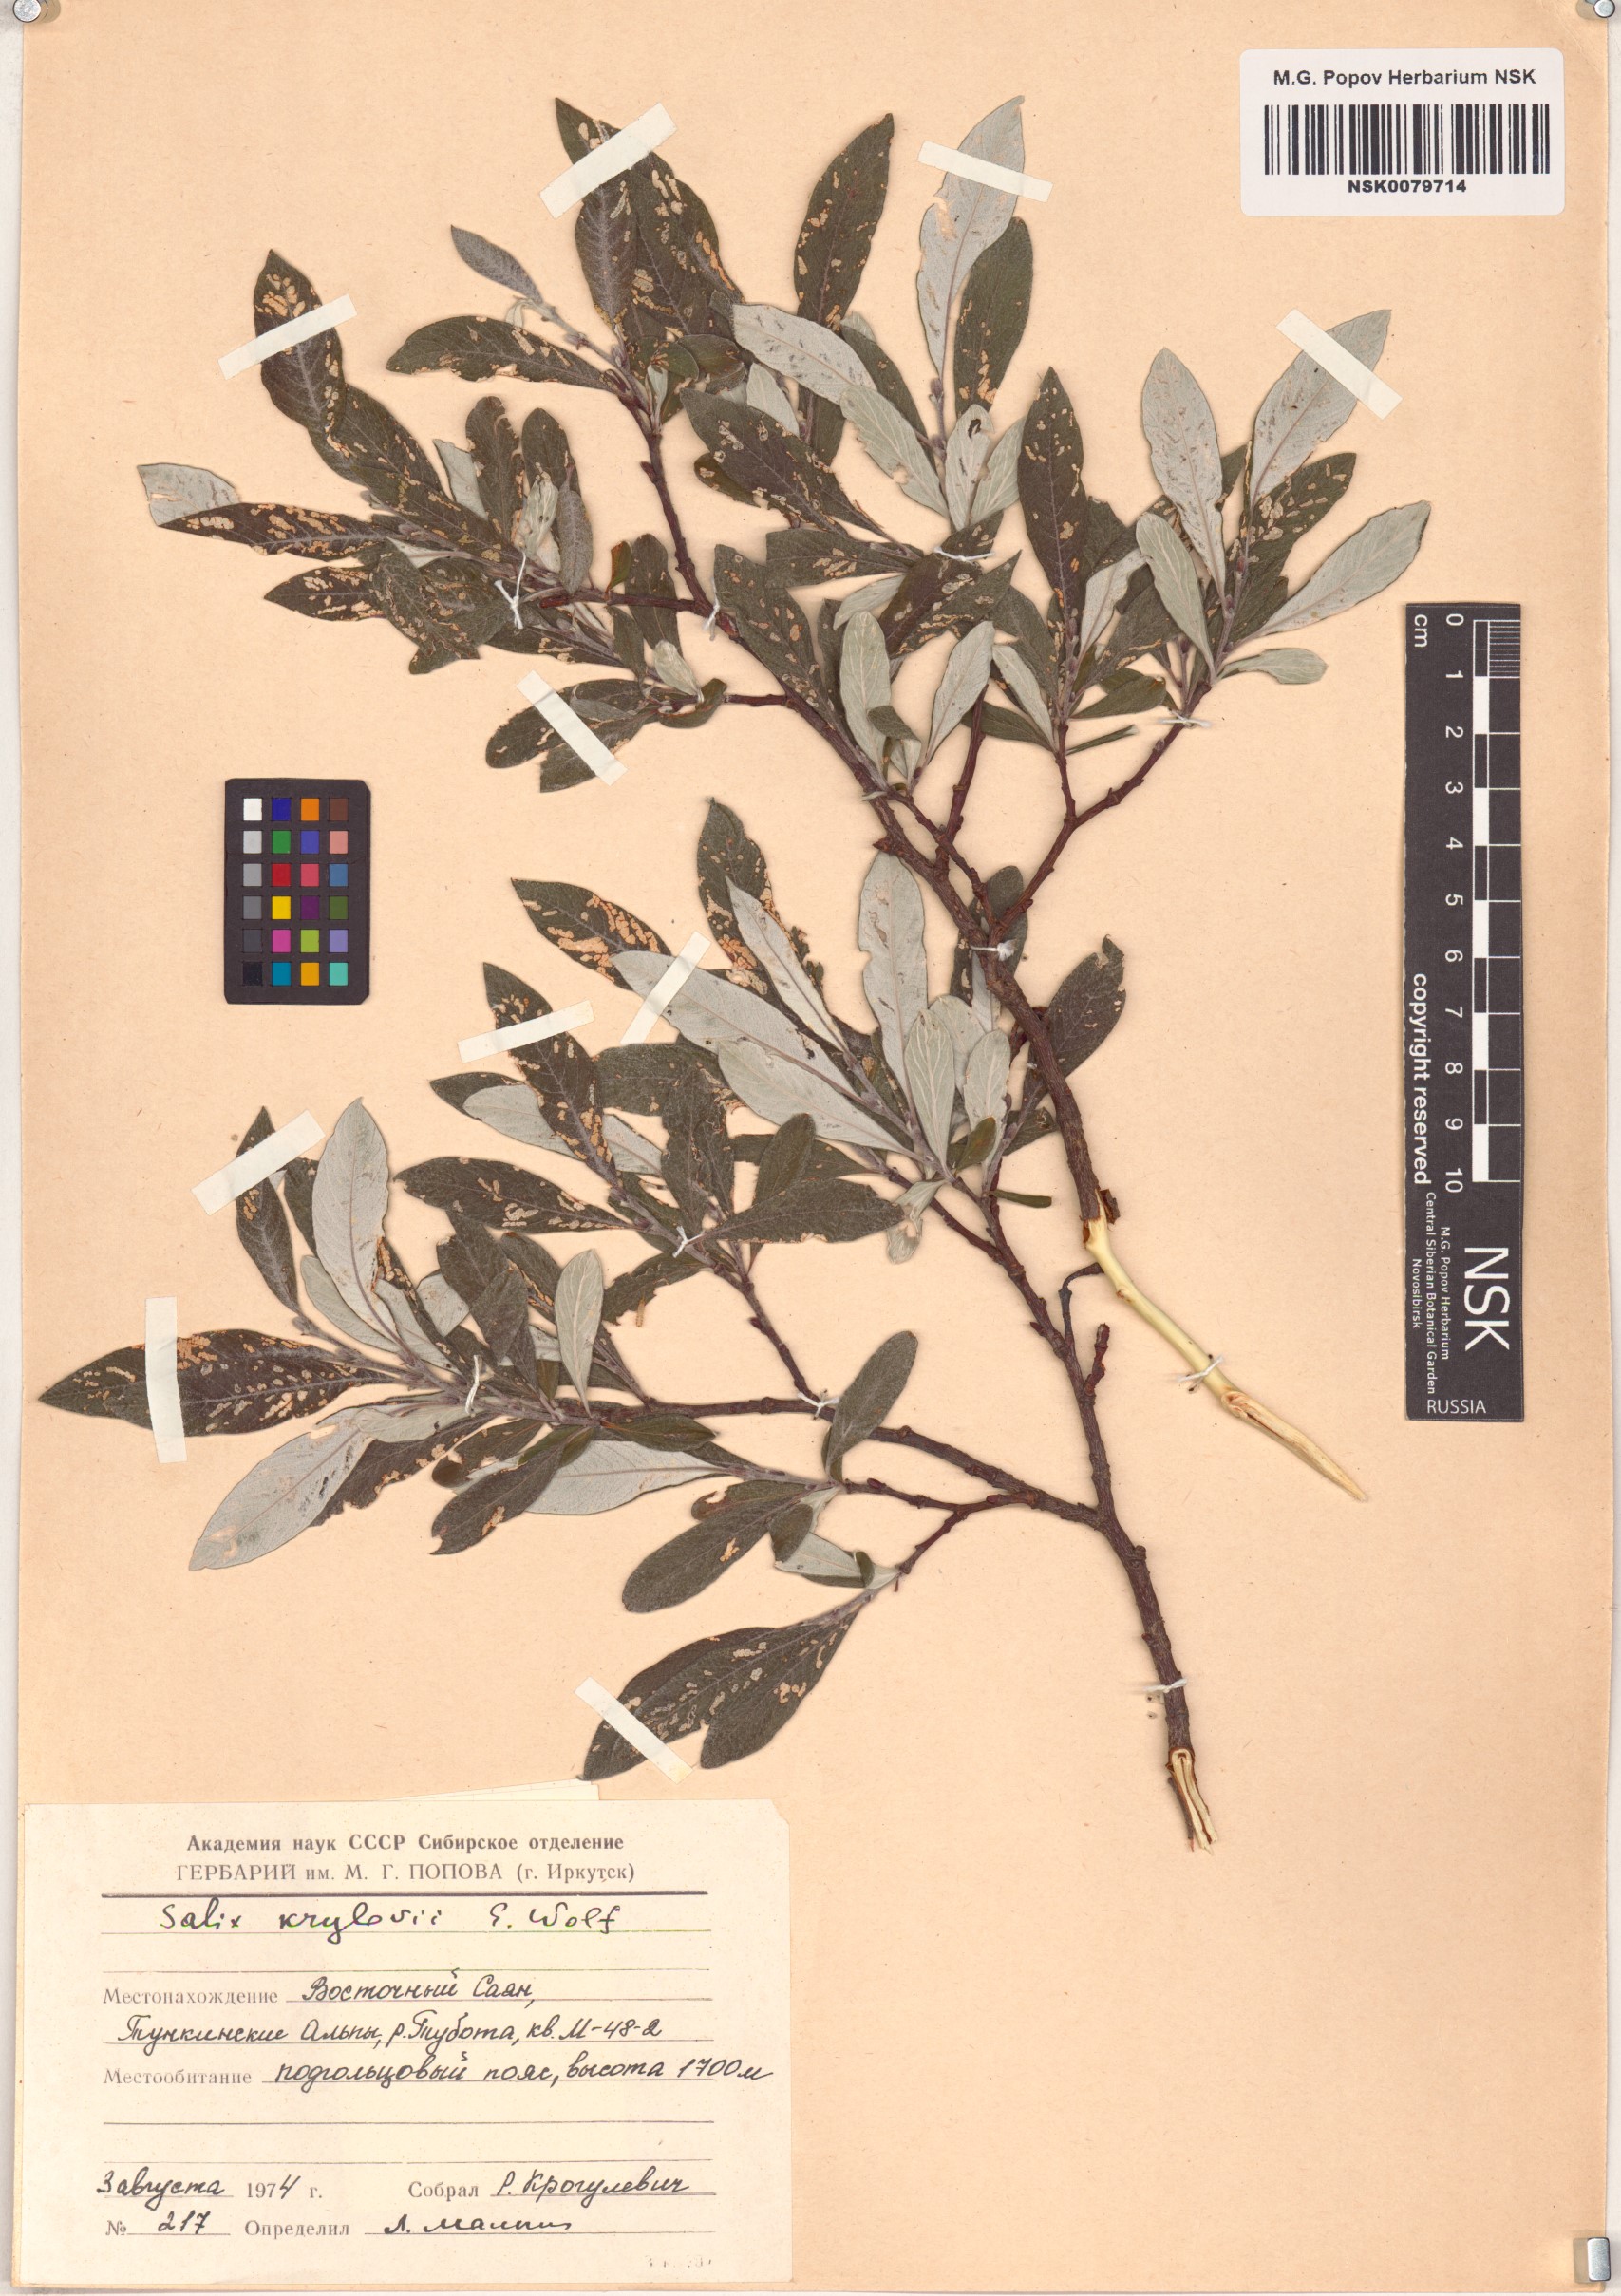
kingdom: Plantae
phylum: Tracheophyta
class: Magnoliopsida
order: Malpighiales
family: Salicaceae
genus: Salix
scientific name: Salix krylovii
